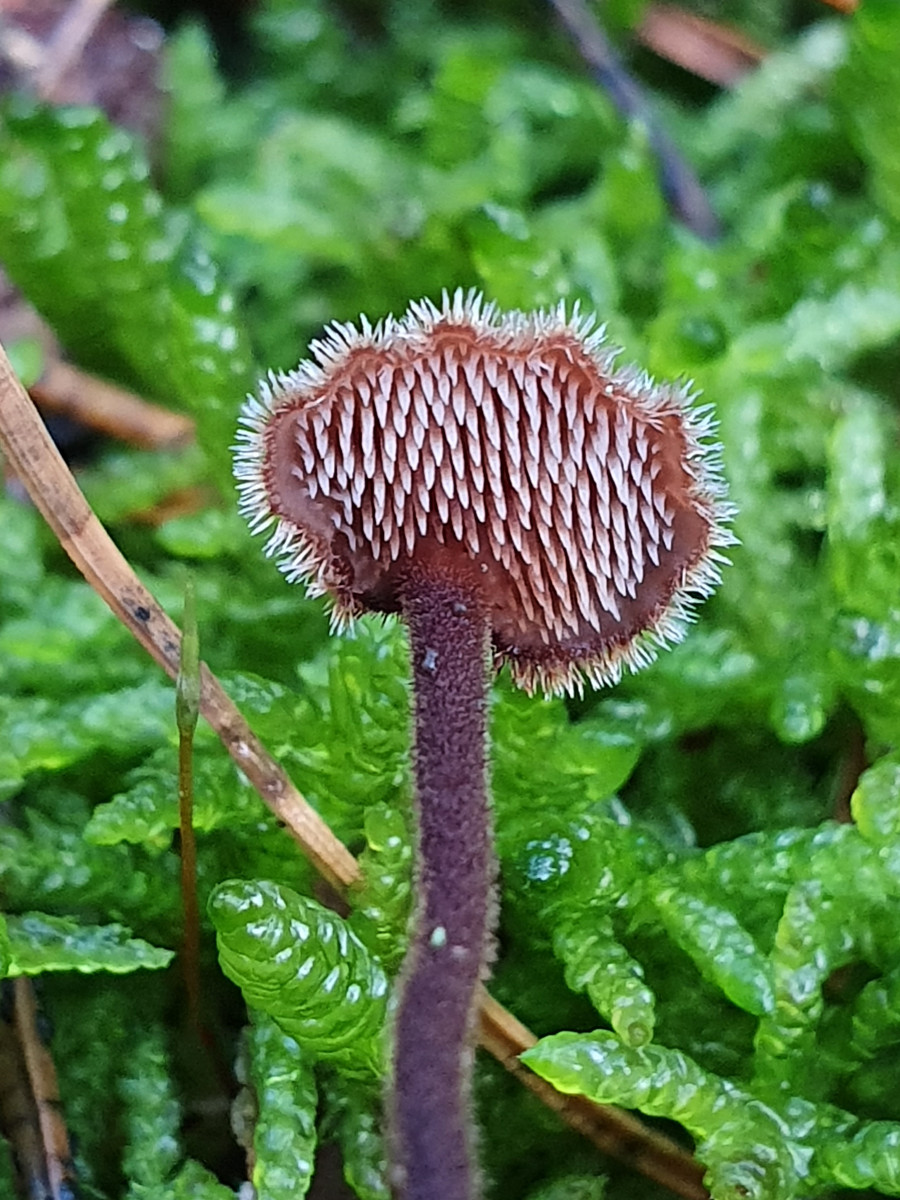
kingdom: Fungi
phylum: Basidiomycota
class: Agaricomycetes
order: Russulales
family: Auriscalpiaceae
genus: Auriscalpium
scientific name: Auriscalpium vulgare
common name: koglepigsvamp
